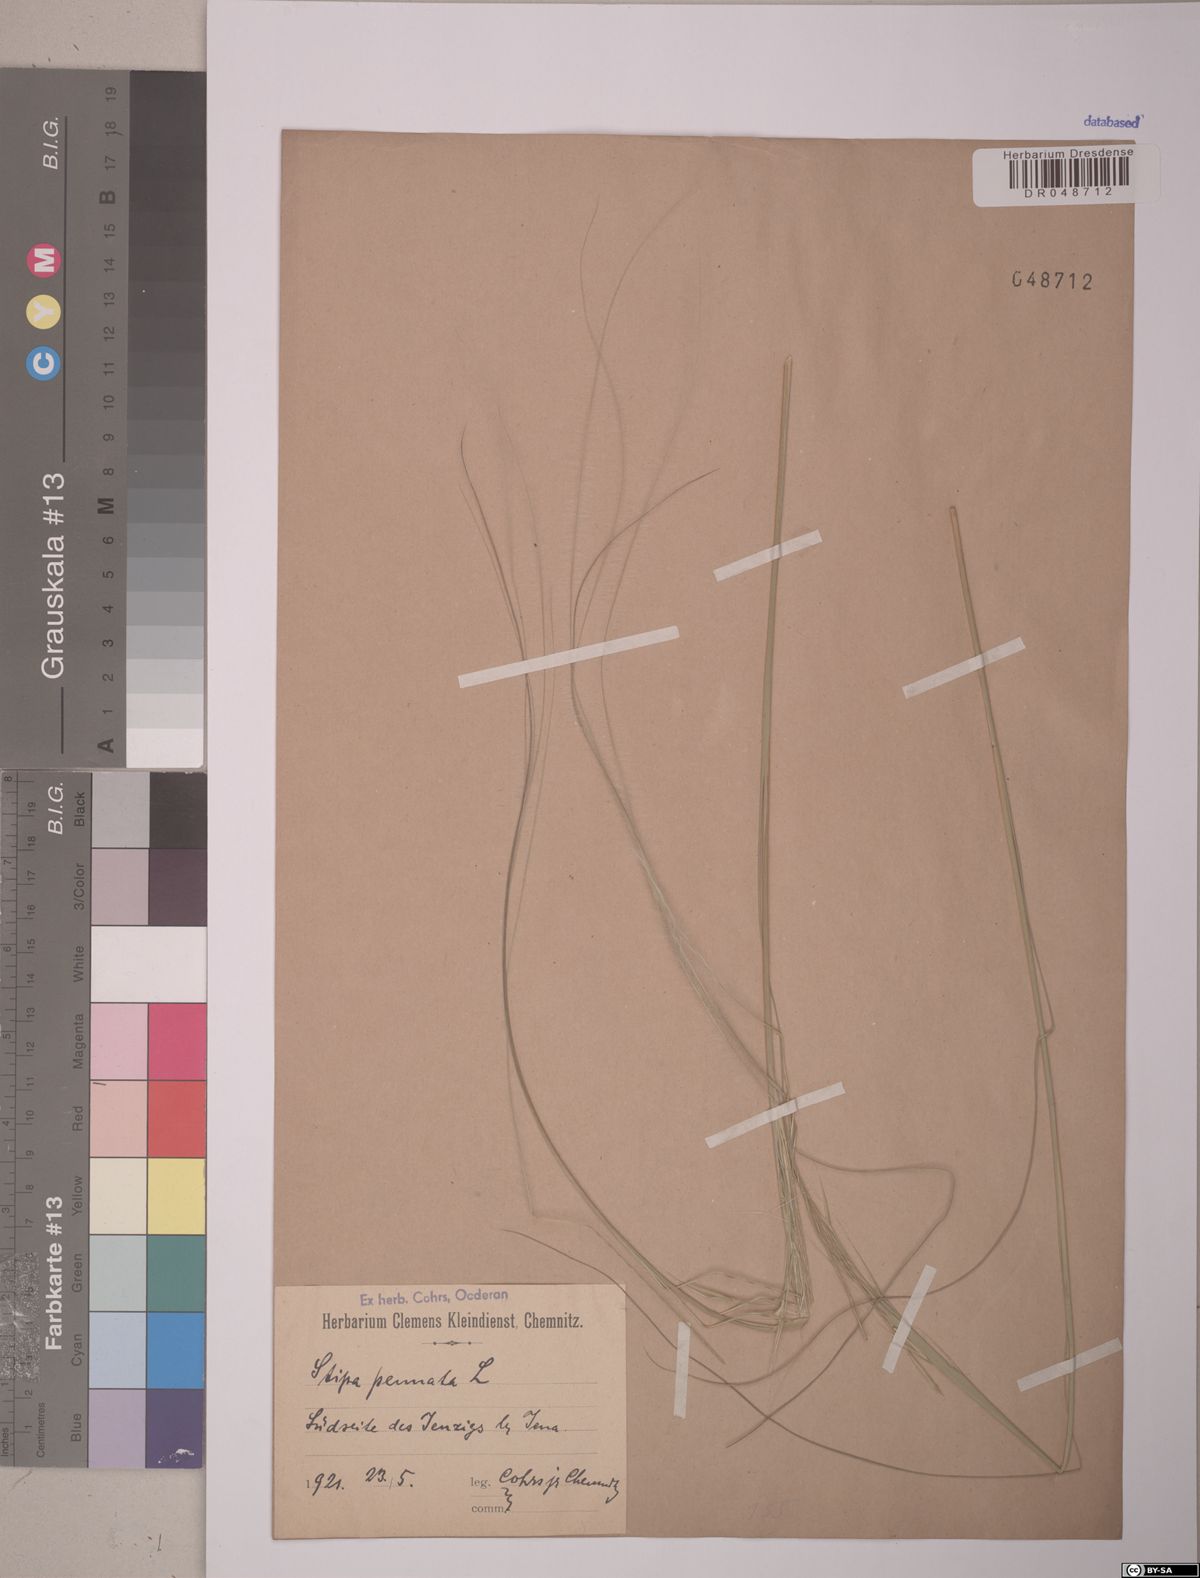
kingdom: Plantae
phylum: Tracheophyta
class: Liliopsida
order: Poales
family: Poaceae
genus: Stipa
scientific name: Stipa pennata
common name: European feather grass
